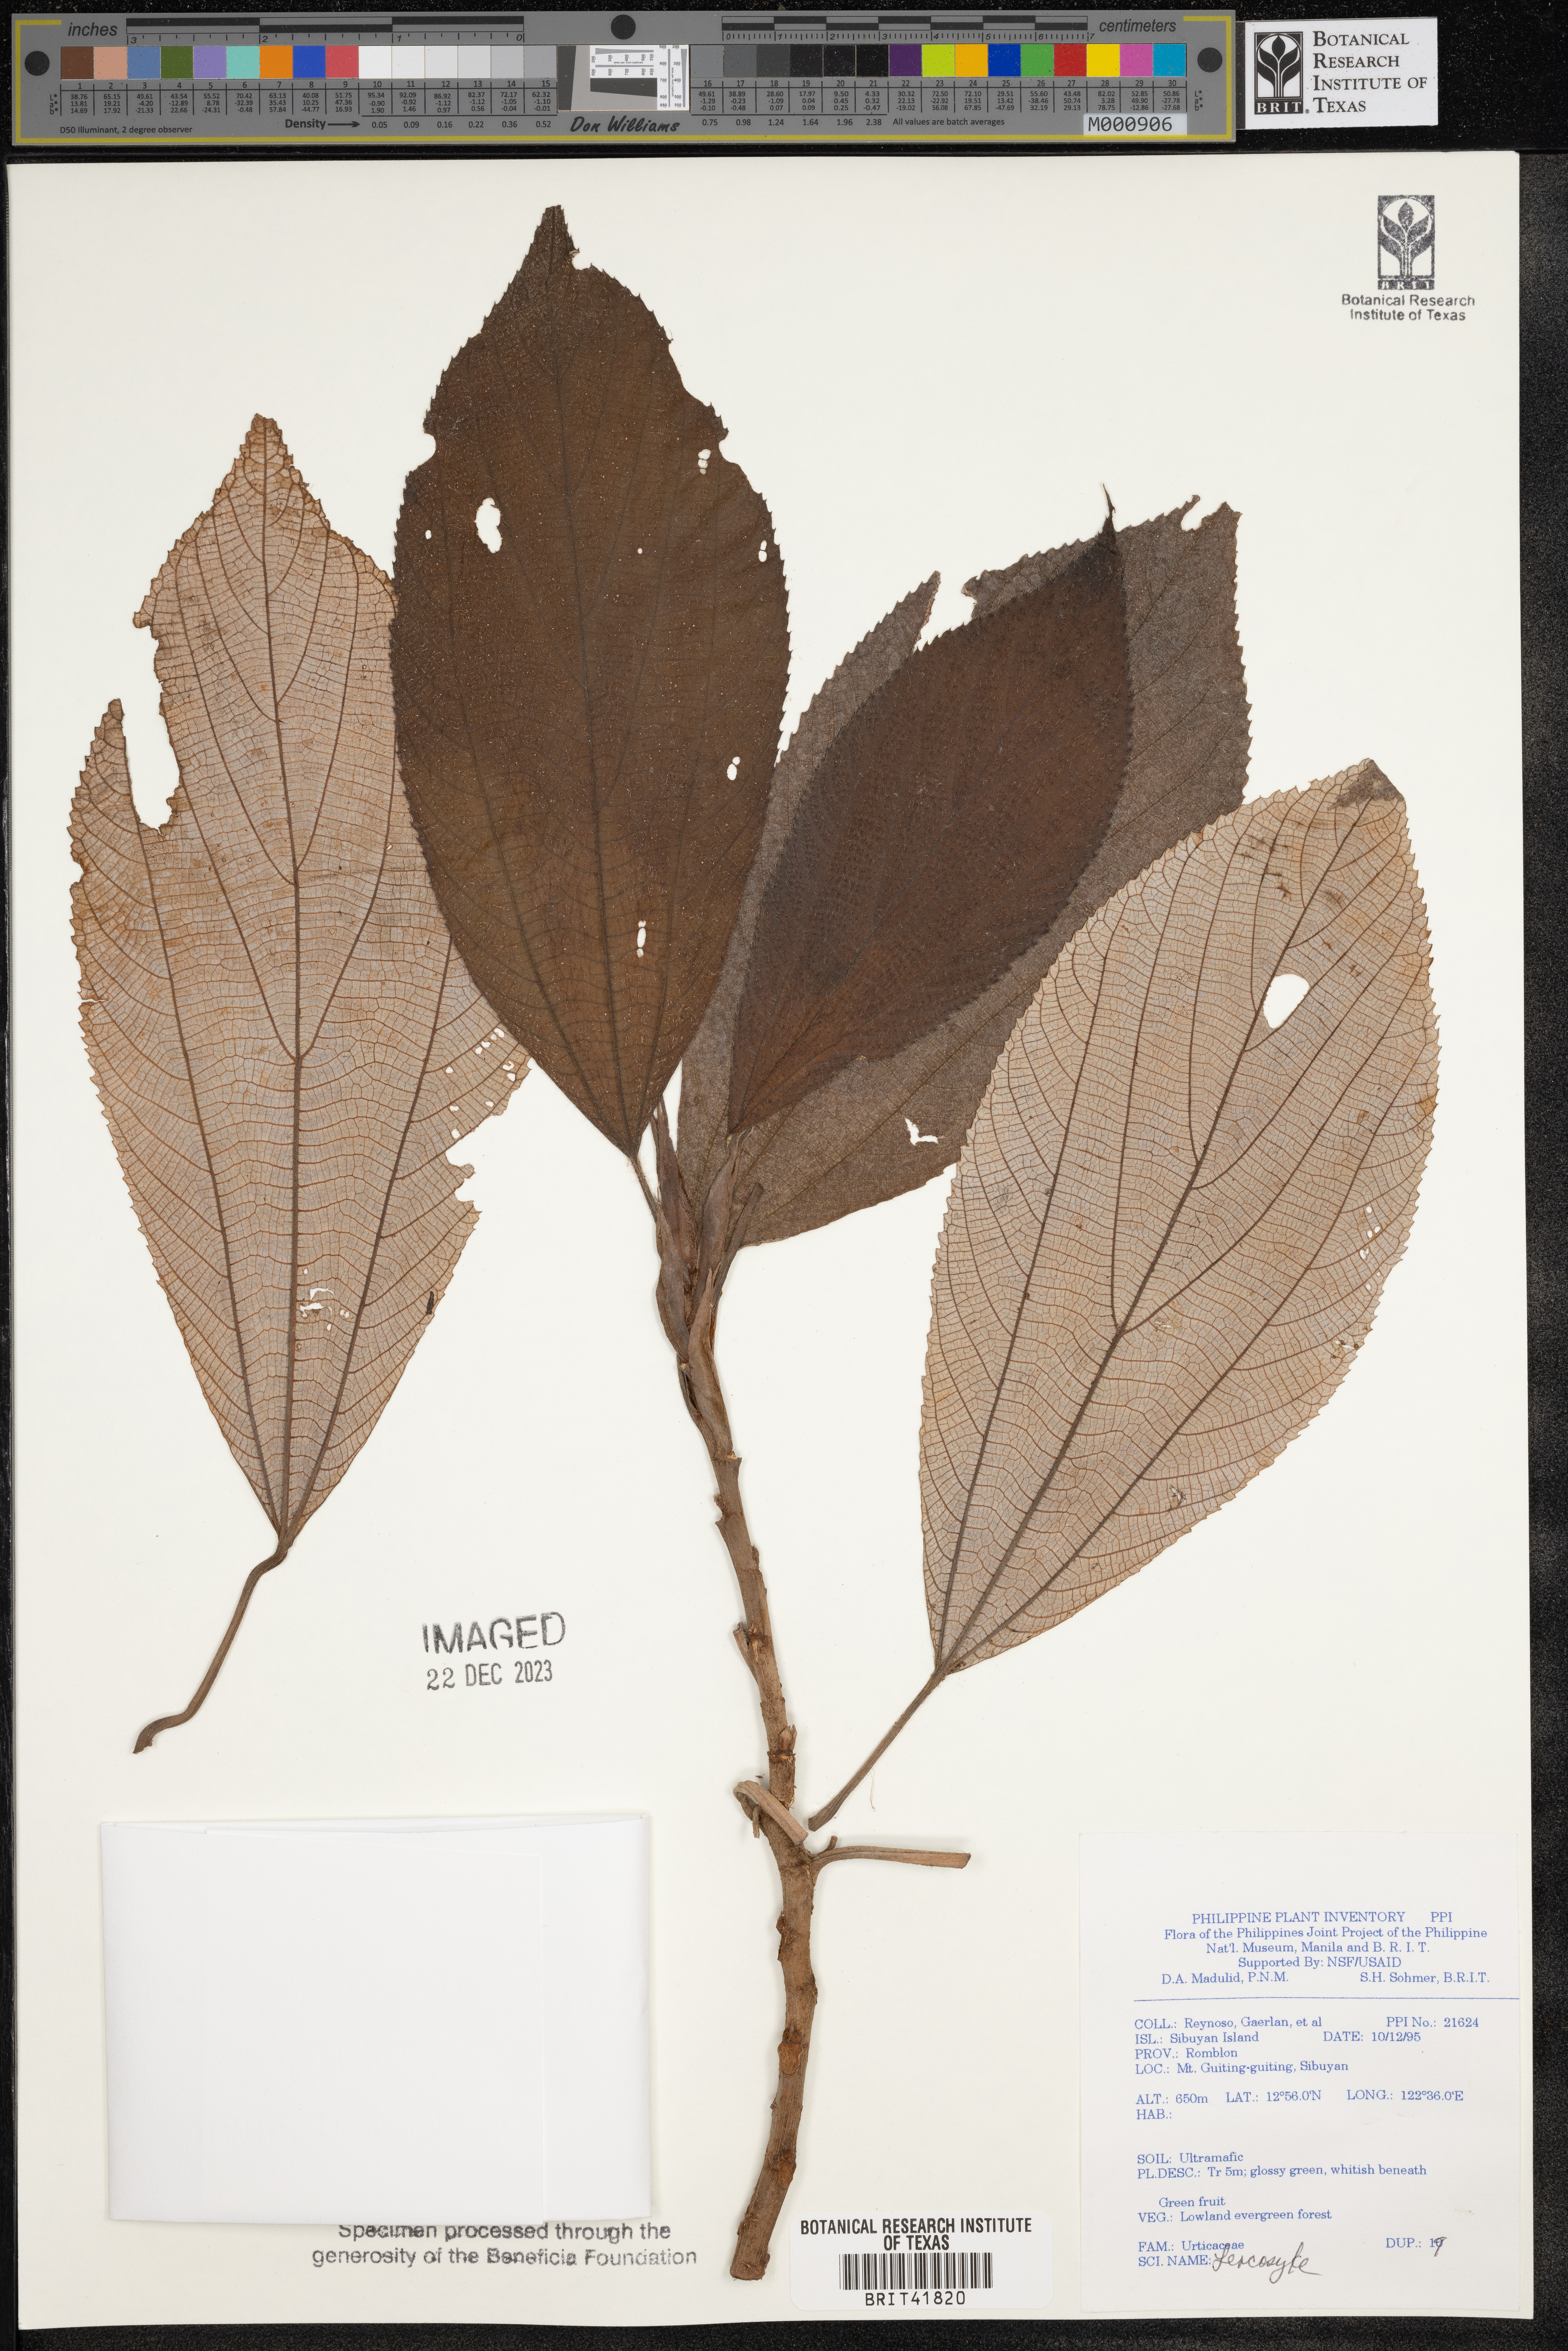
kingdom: Plantae
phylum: Tracheophyta
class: Magnoliopsida
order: Rosales
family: Urticaceae
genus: Leucosyke
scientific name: Leucosyke
